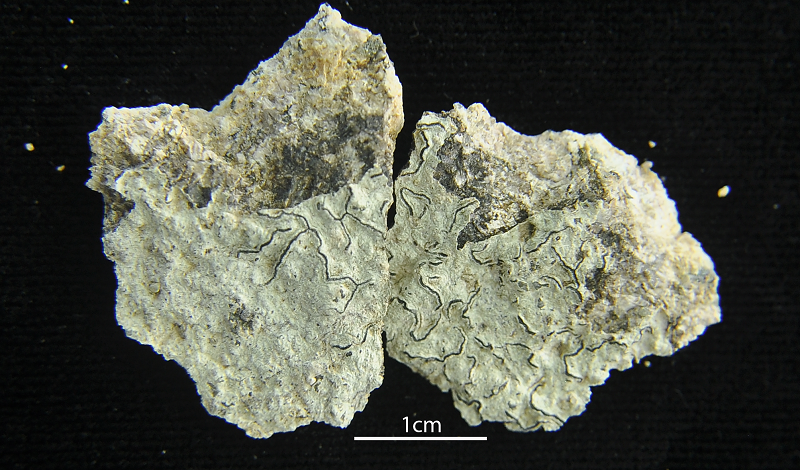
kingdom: Fungi
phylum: Ascomycota
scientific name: Ascomycota
